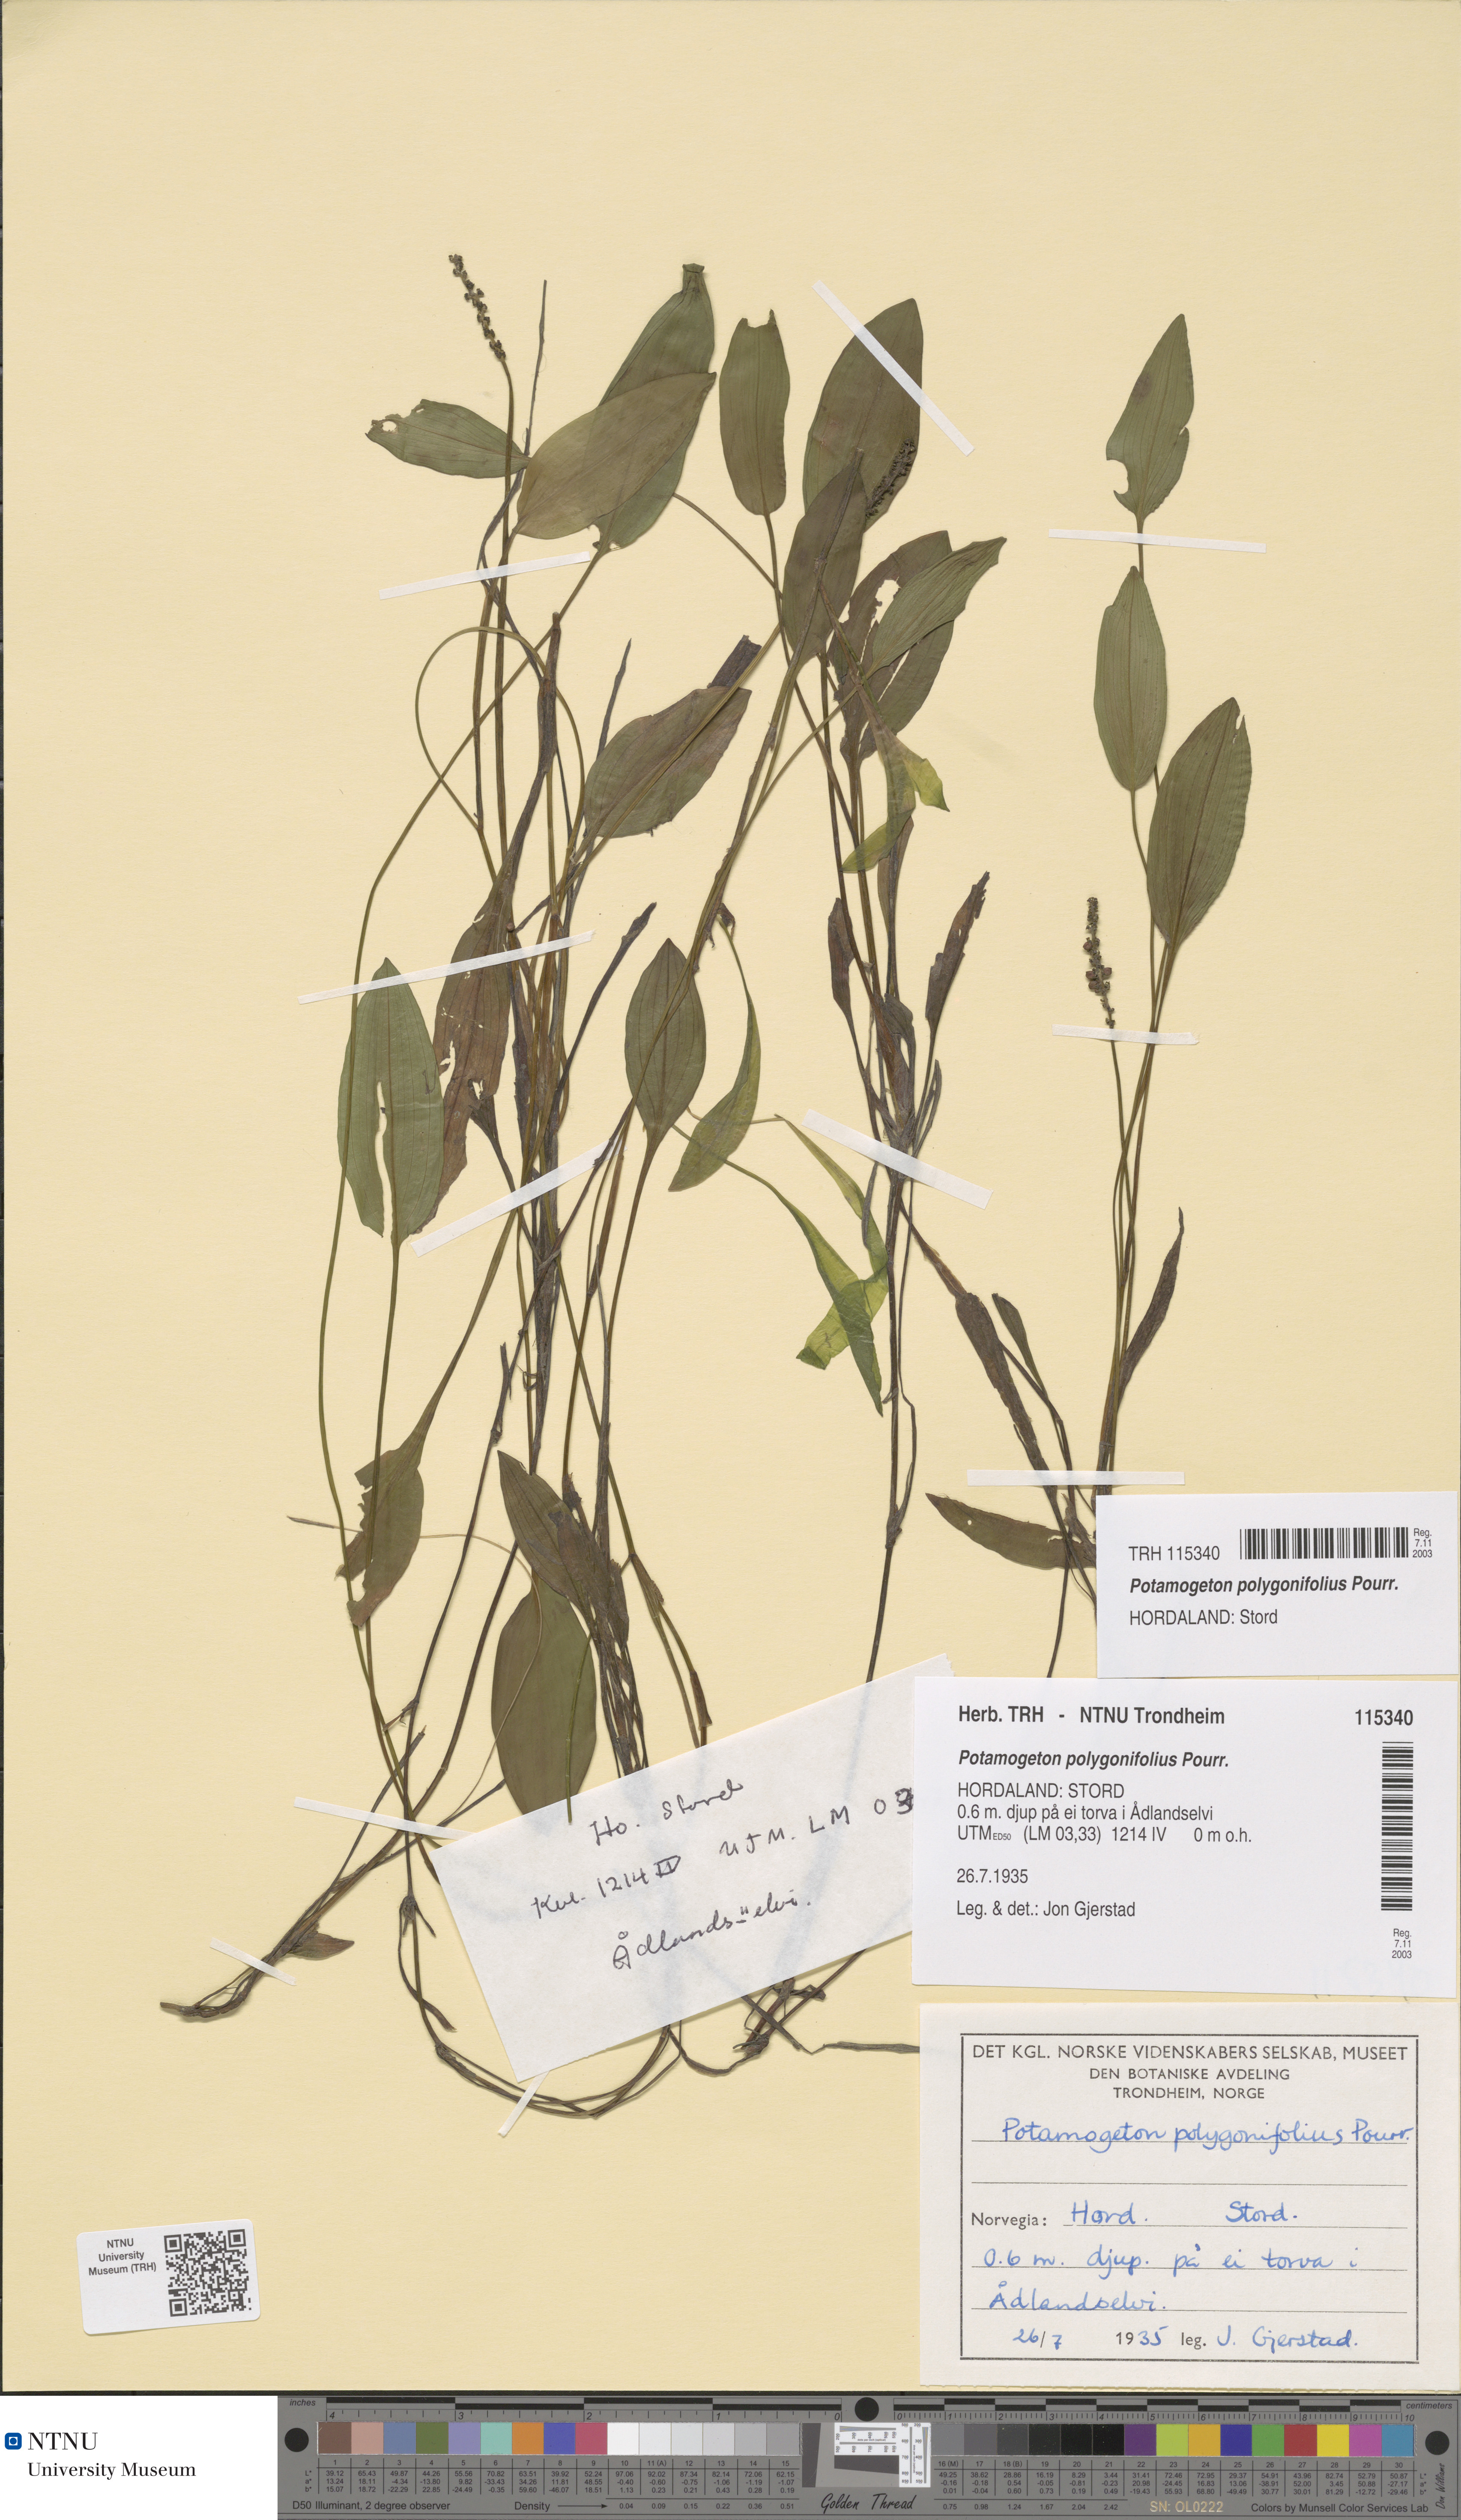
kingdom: Plantae
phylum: Tracheophyta
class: Liliopsida
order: Alismatales
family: Potamogetonaceae
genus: Potamogeton
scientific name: Potamogeton polygonifolius
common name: Bog pondweed
